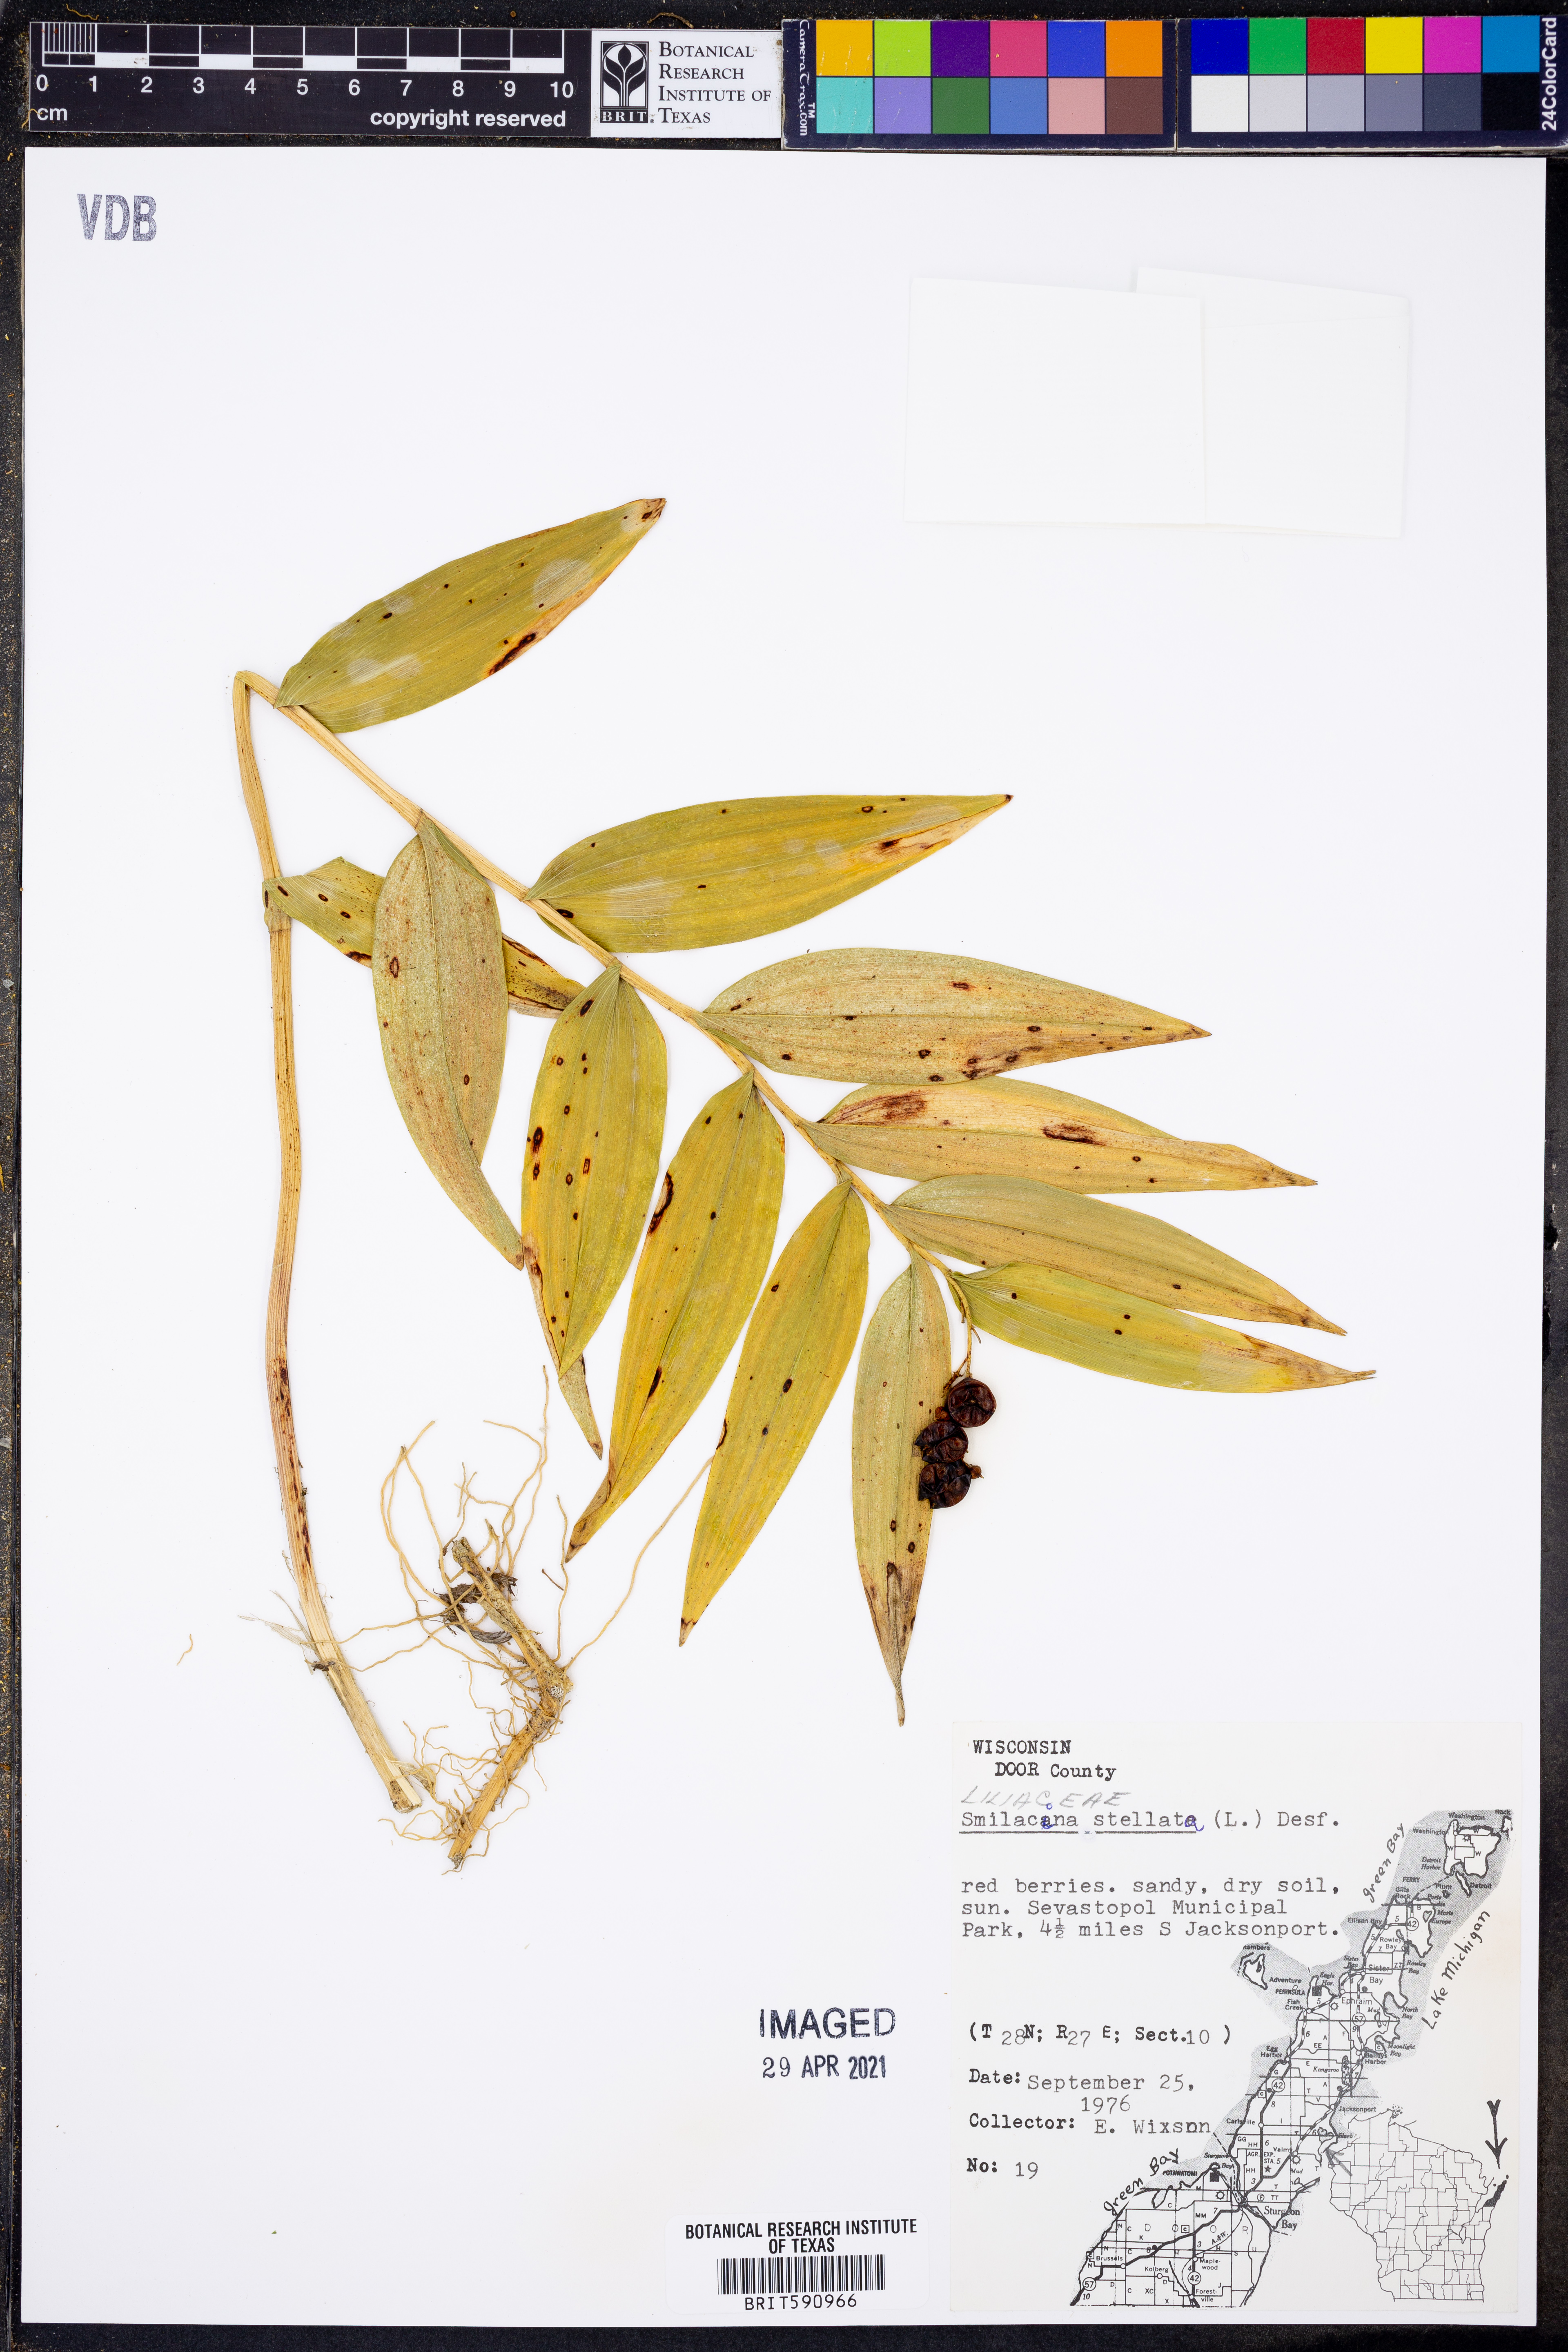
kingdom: Plantae
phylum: Tracheophyta
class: Liliopsida
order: Asparagales
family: Asparagaceae
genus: Maianthemum
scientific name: Maianthemum stellatum
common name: Little false solomon's seal
